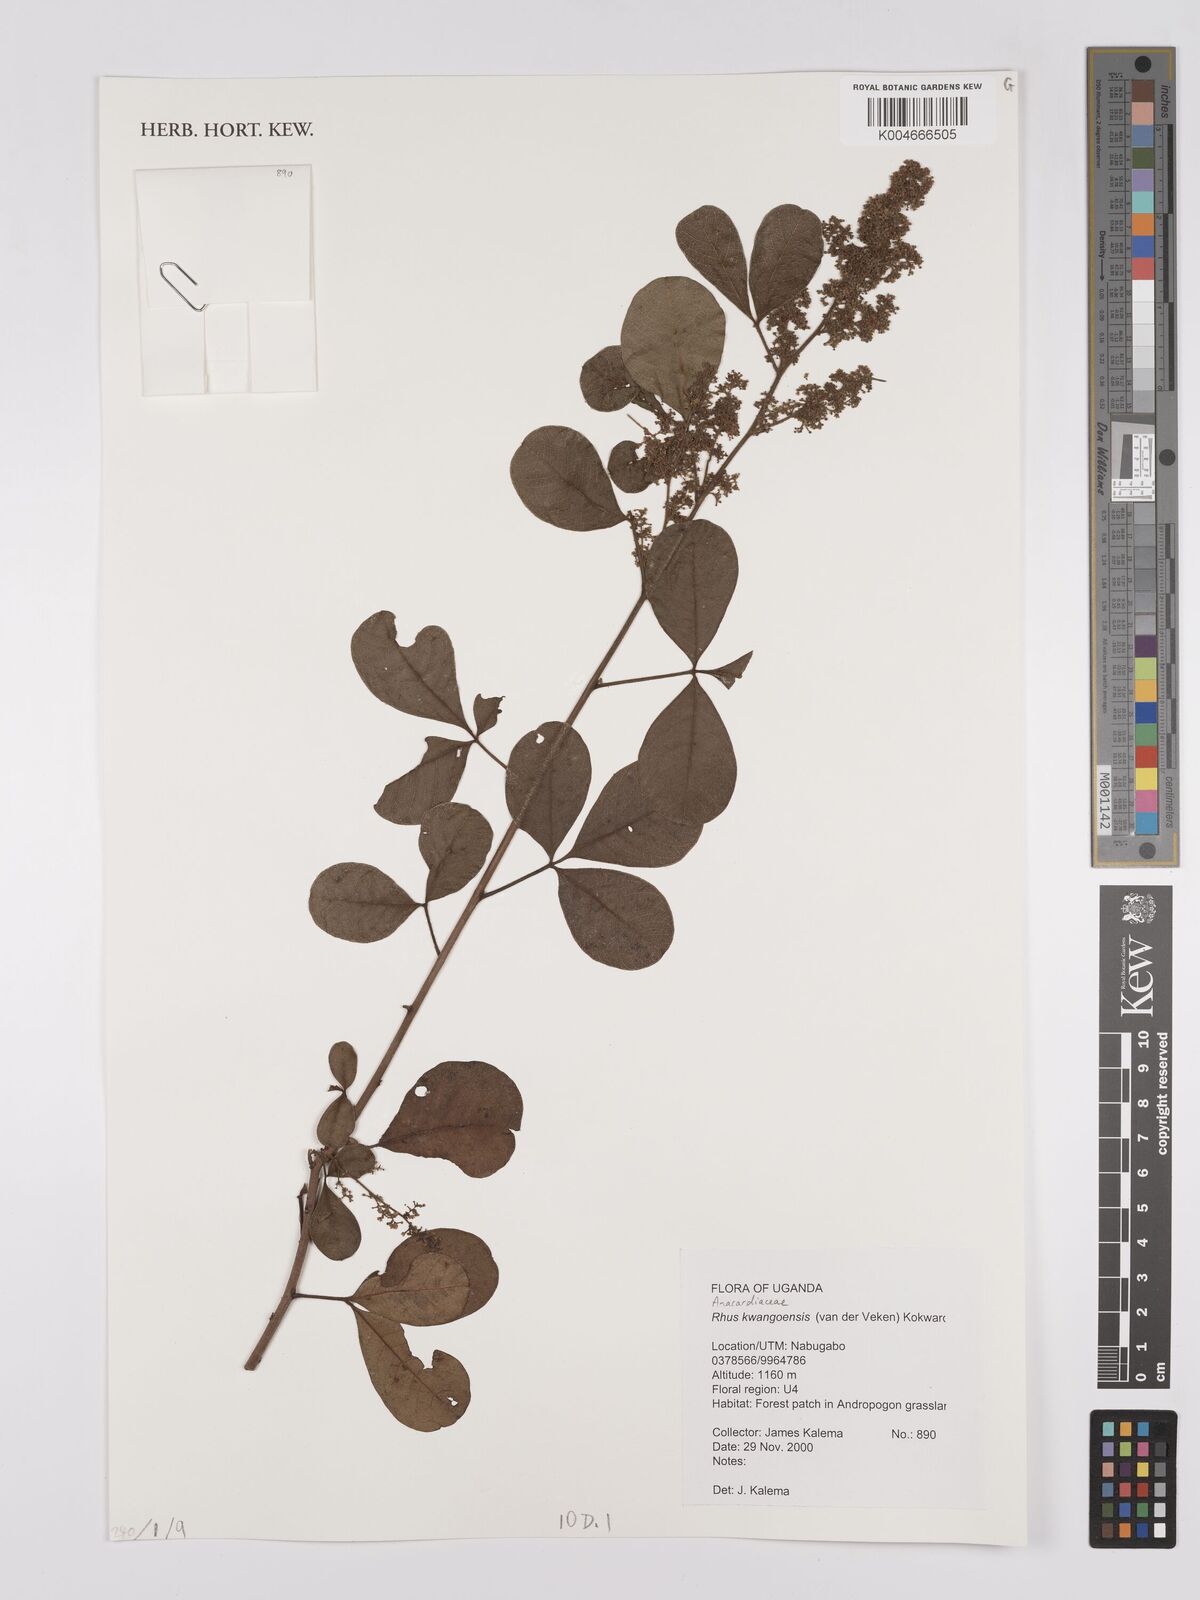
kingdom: Plantae
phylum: Tracheophyta
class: Magnoliopsida
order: Sapindales
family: Anacardiaceae
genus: Searsia
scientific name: Searsia kwangoensis
